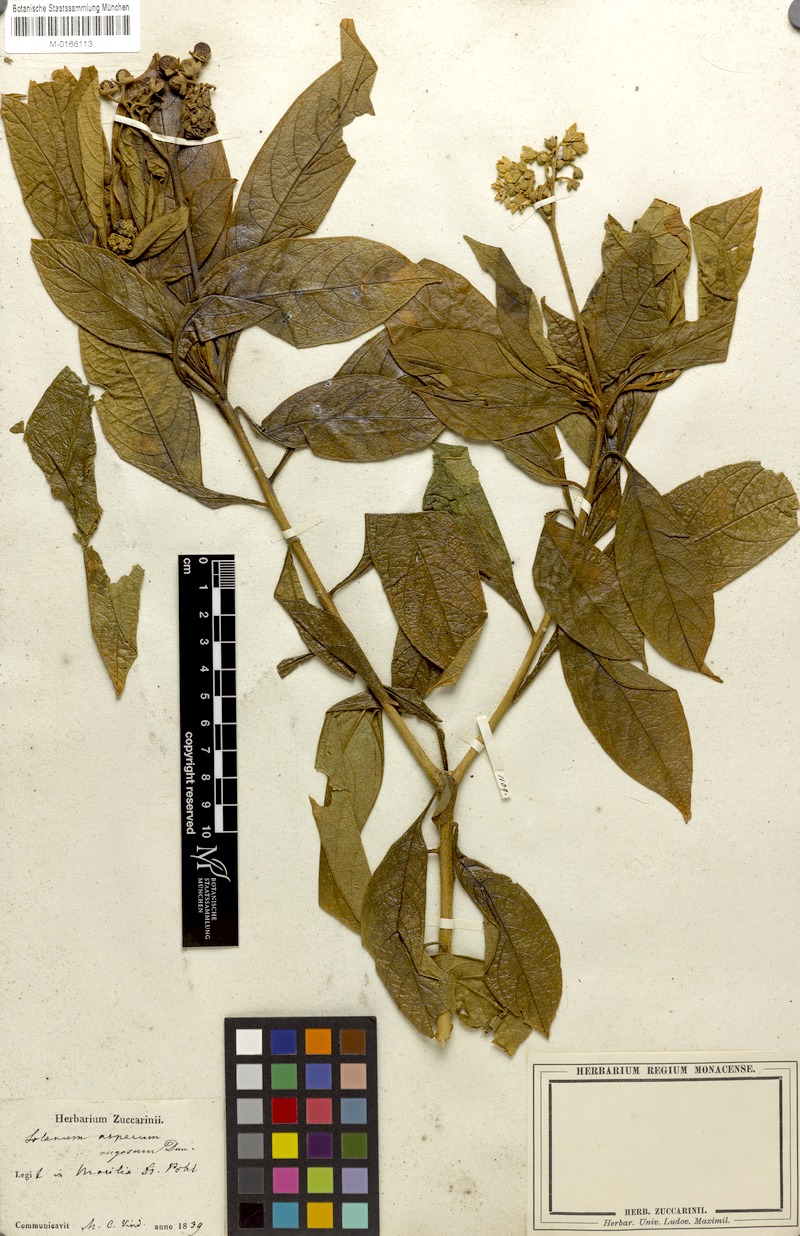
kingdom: Plantae
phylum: Tracheophyta
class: Magnoliopsida
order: Solanales
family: Solanaceae
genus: Solanum
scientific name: Solanum rugosum
